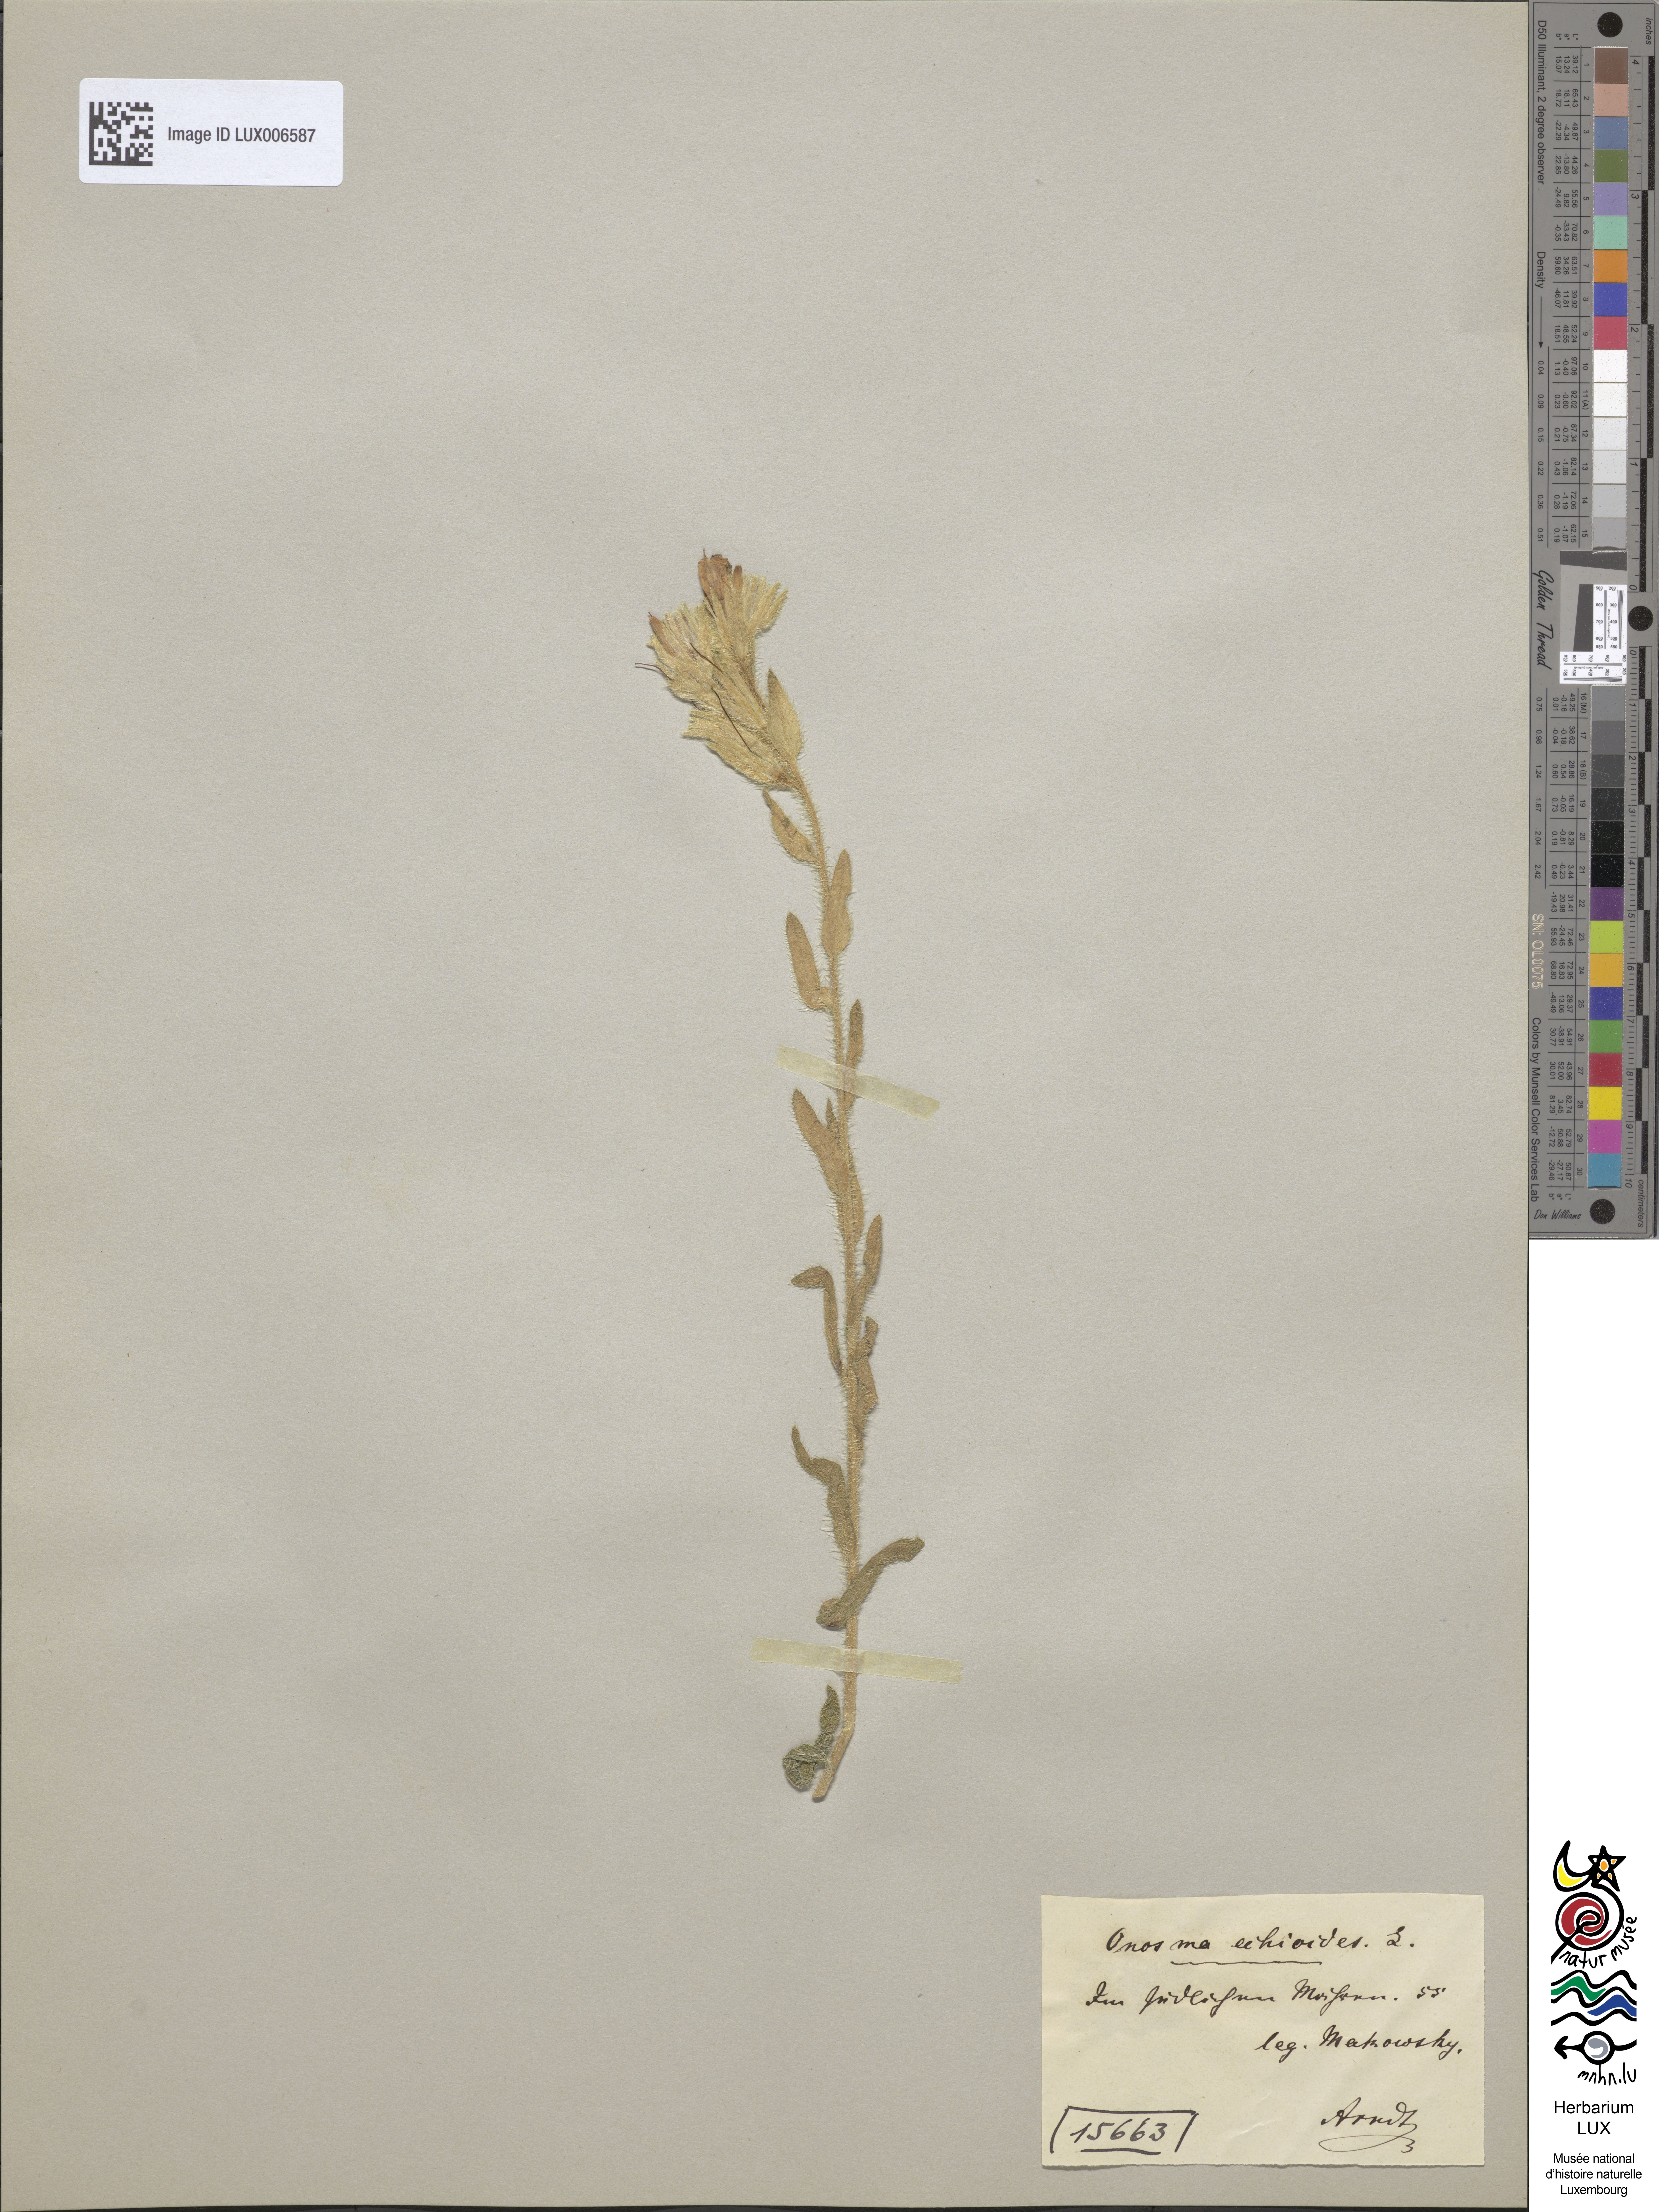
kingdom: Plantae
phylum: Tracheophyta
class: Magnoliopsida
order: Boraginales
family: Boraginaceae
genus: Onosma
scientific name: Onosma echioides
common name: Goldendrop
